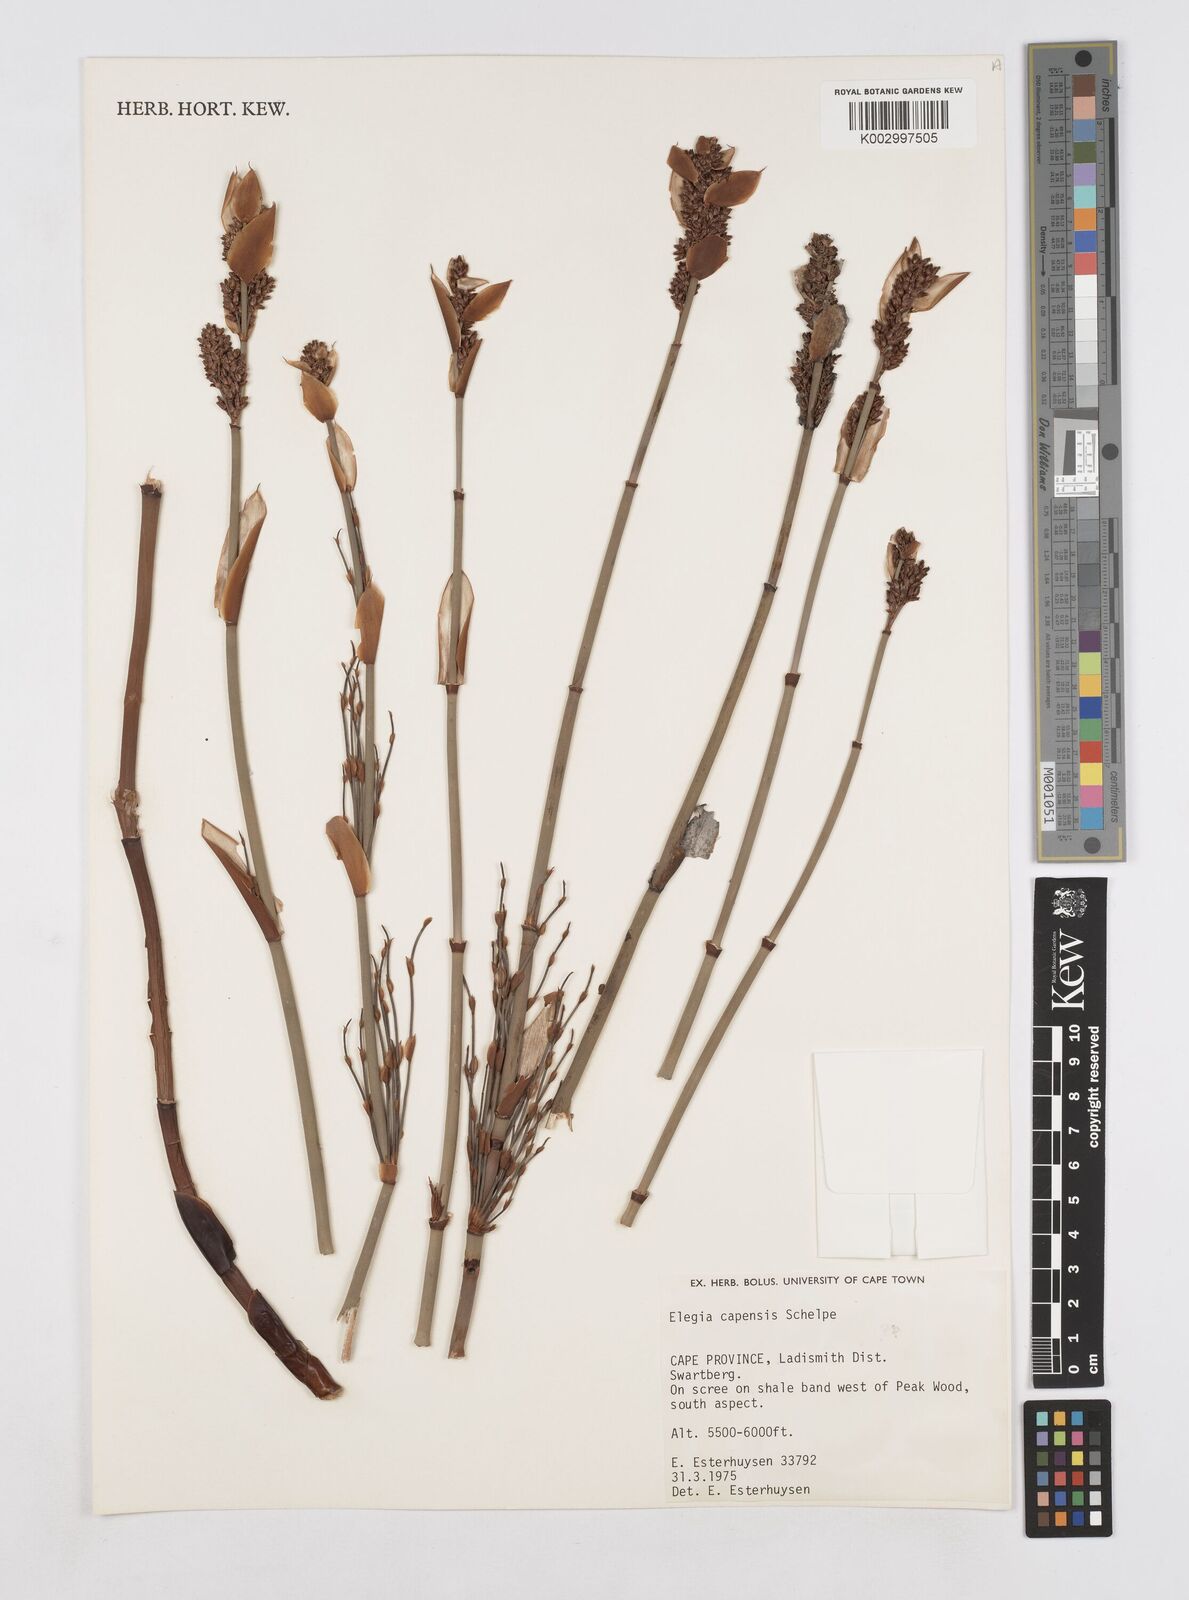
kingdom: Plantae
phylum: Tracheophyta
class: Liliopsida
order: Poales
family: Restionaceae
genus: Elegia
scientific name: Elegia asperiflora
